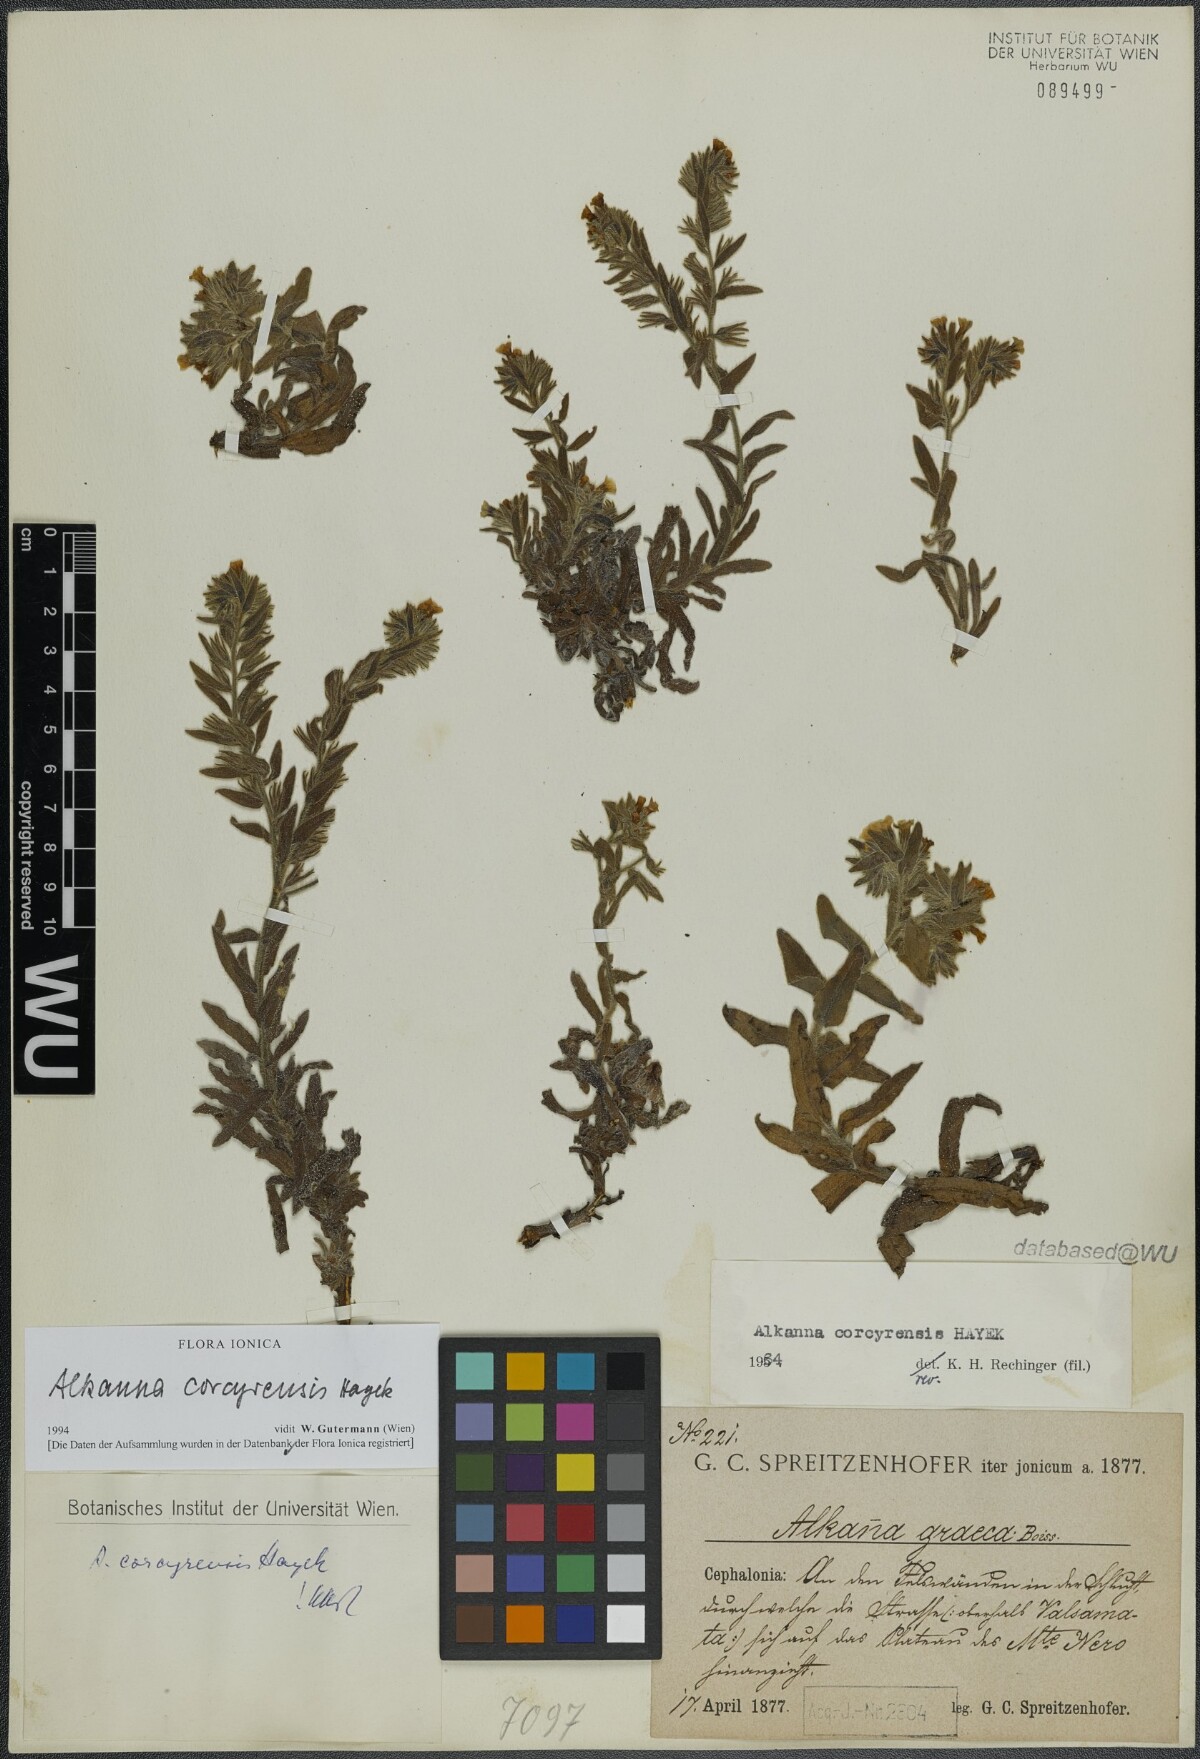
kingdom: Plantae
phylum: Tracheophyta
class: Magnoliopsida
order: Boraginales
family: Boraginaceae
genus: Alkanna
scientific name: Alkanna corcyrensis
